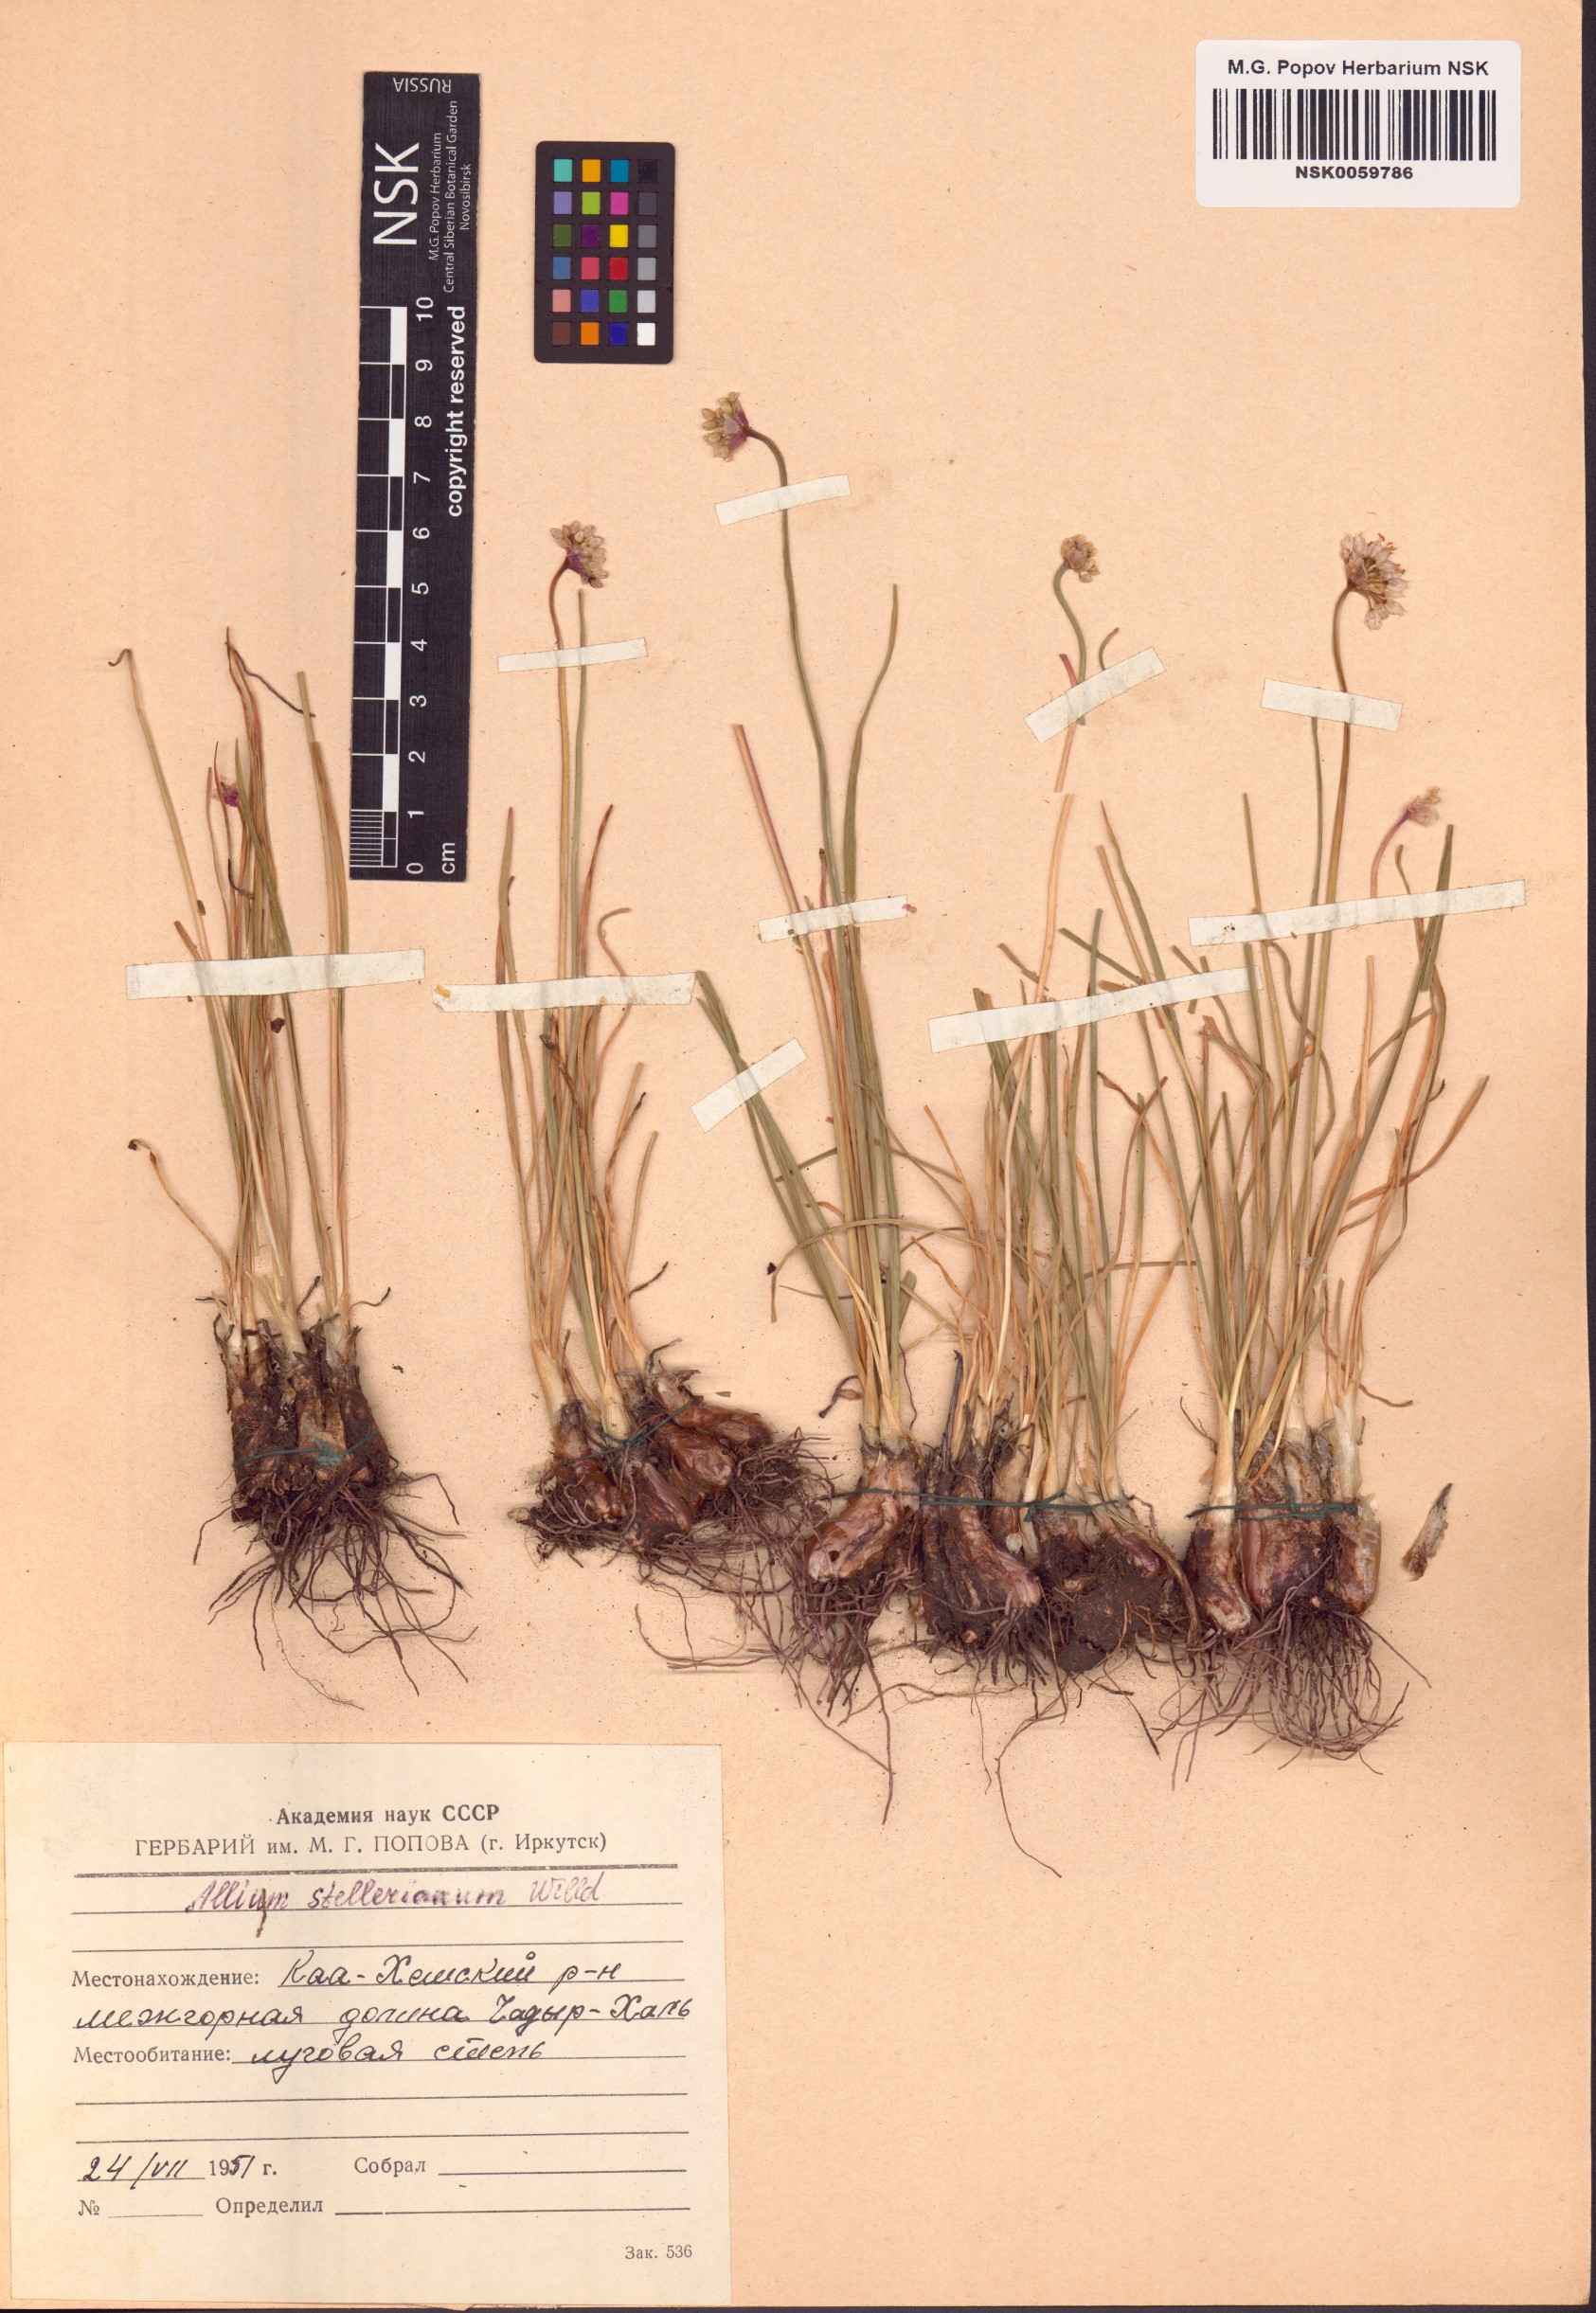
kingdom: Plantae
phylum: Tracheophyta
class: Liliopsida
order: Asparagales
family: Amaryllidaceae
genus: Allium
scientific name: Allium stellerianum
